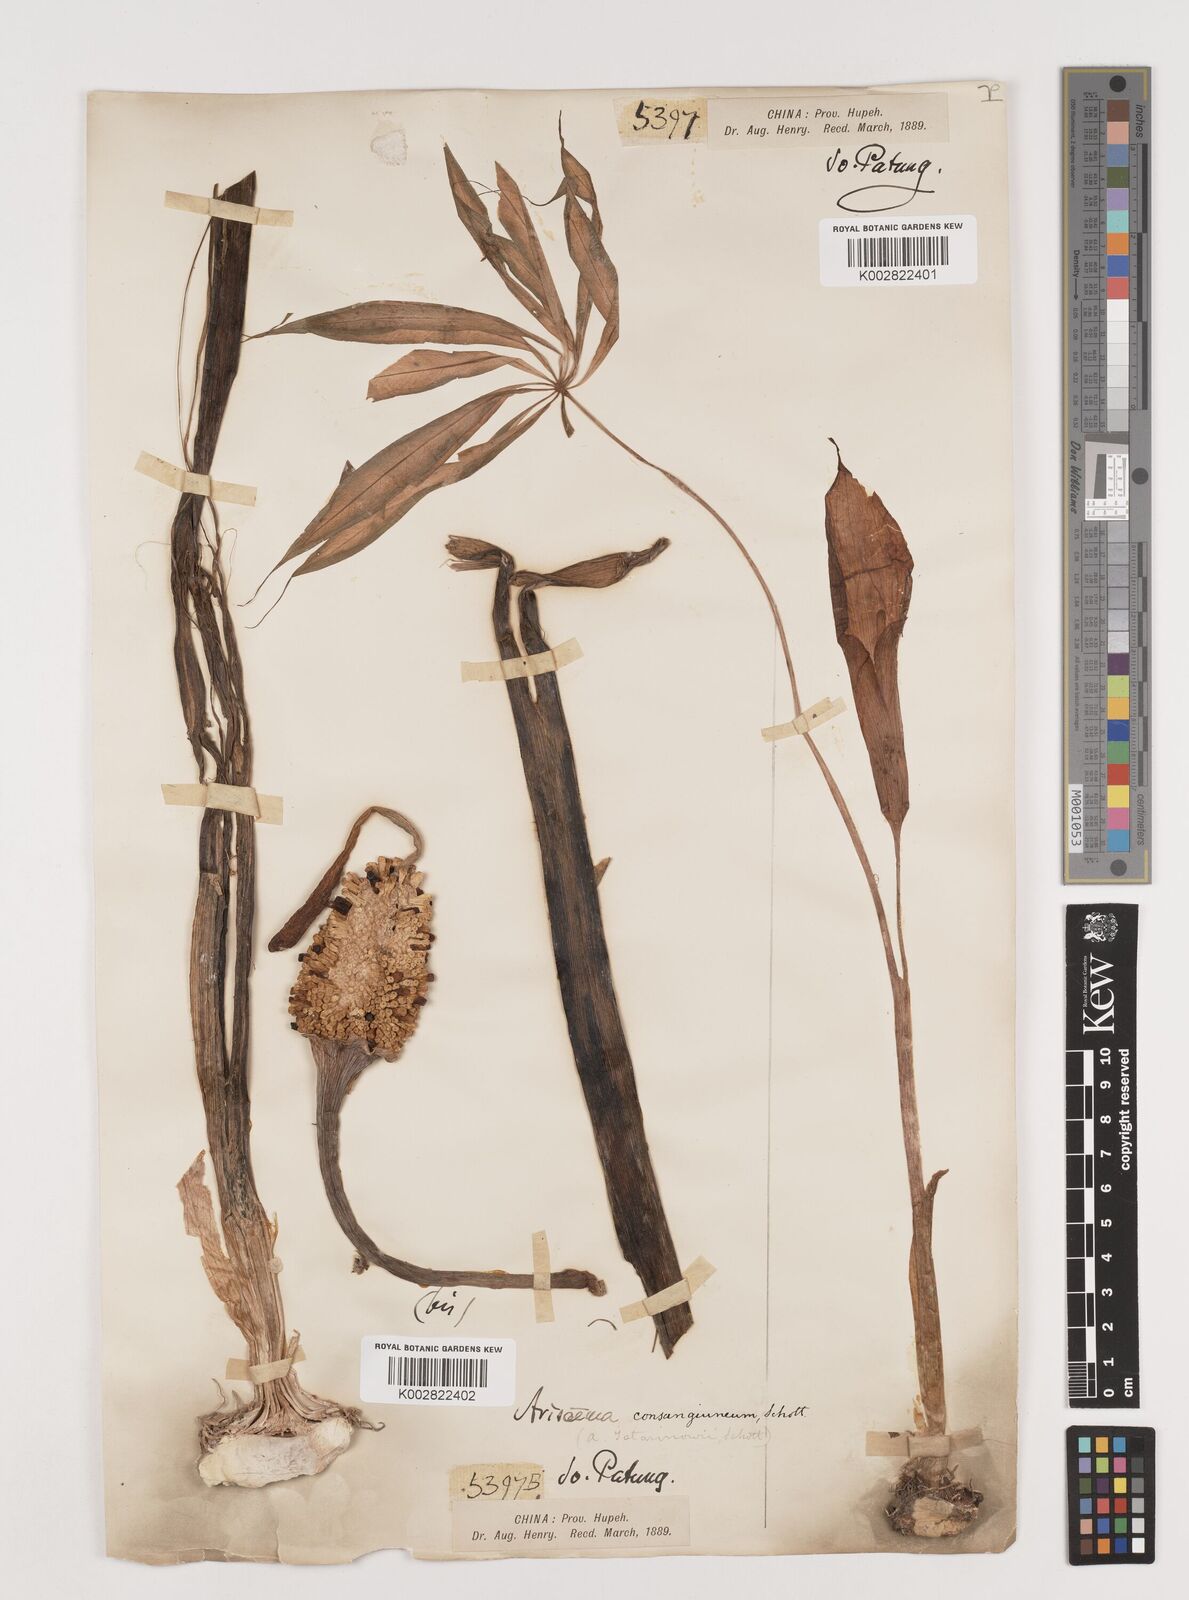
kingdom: Plantae
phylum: Tracheophyta
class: Liliopsida
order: Alismatales
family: Araceae
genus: Arisaema
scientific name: Arisaema erubescens
